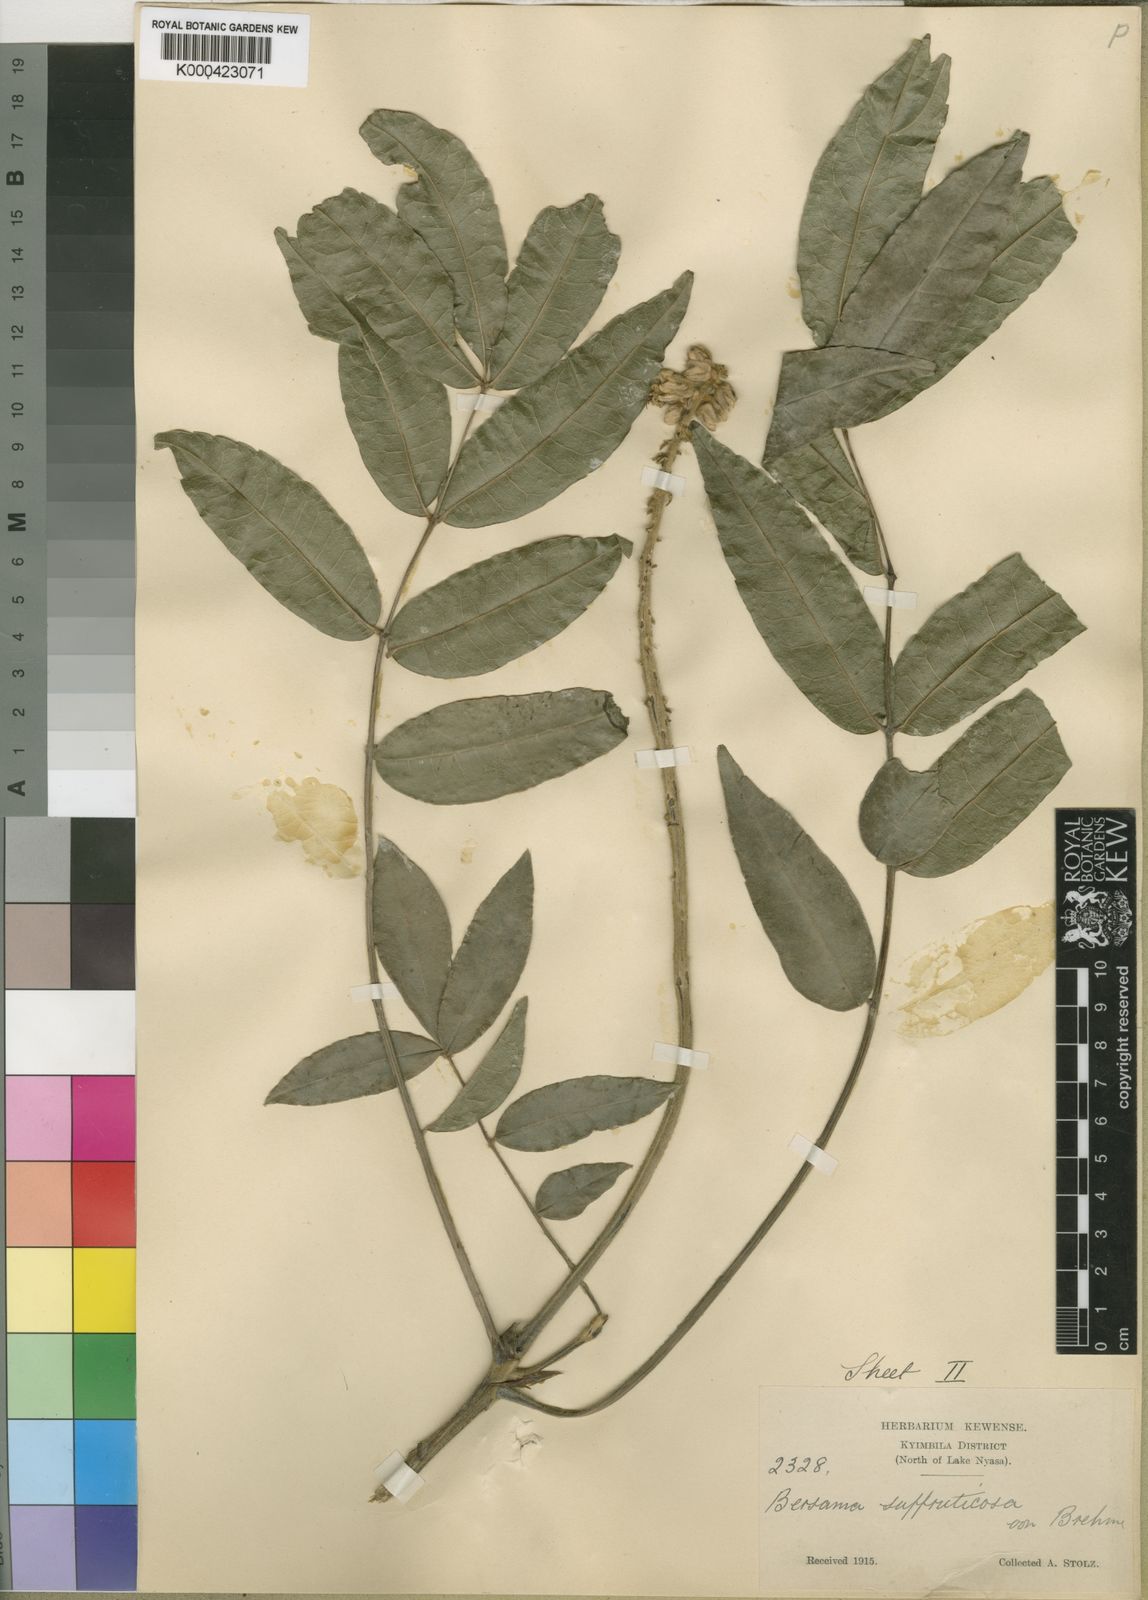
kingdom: Plantae
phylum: Tracheophyta
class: Magnoliopsida
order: Geraniales
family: Melianthaceae
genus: Bersama
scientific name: Bersama abyssinica
